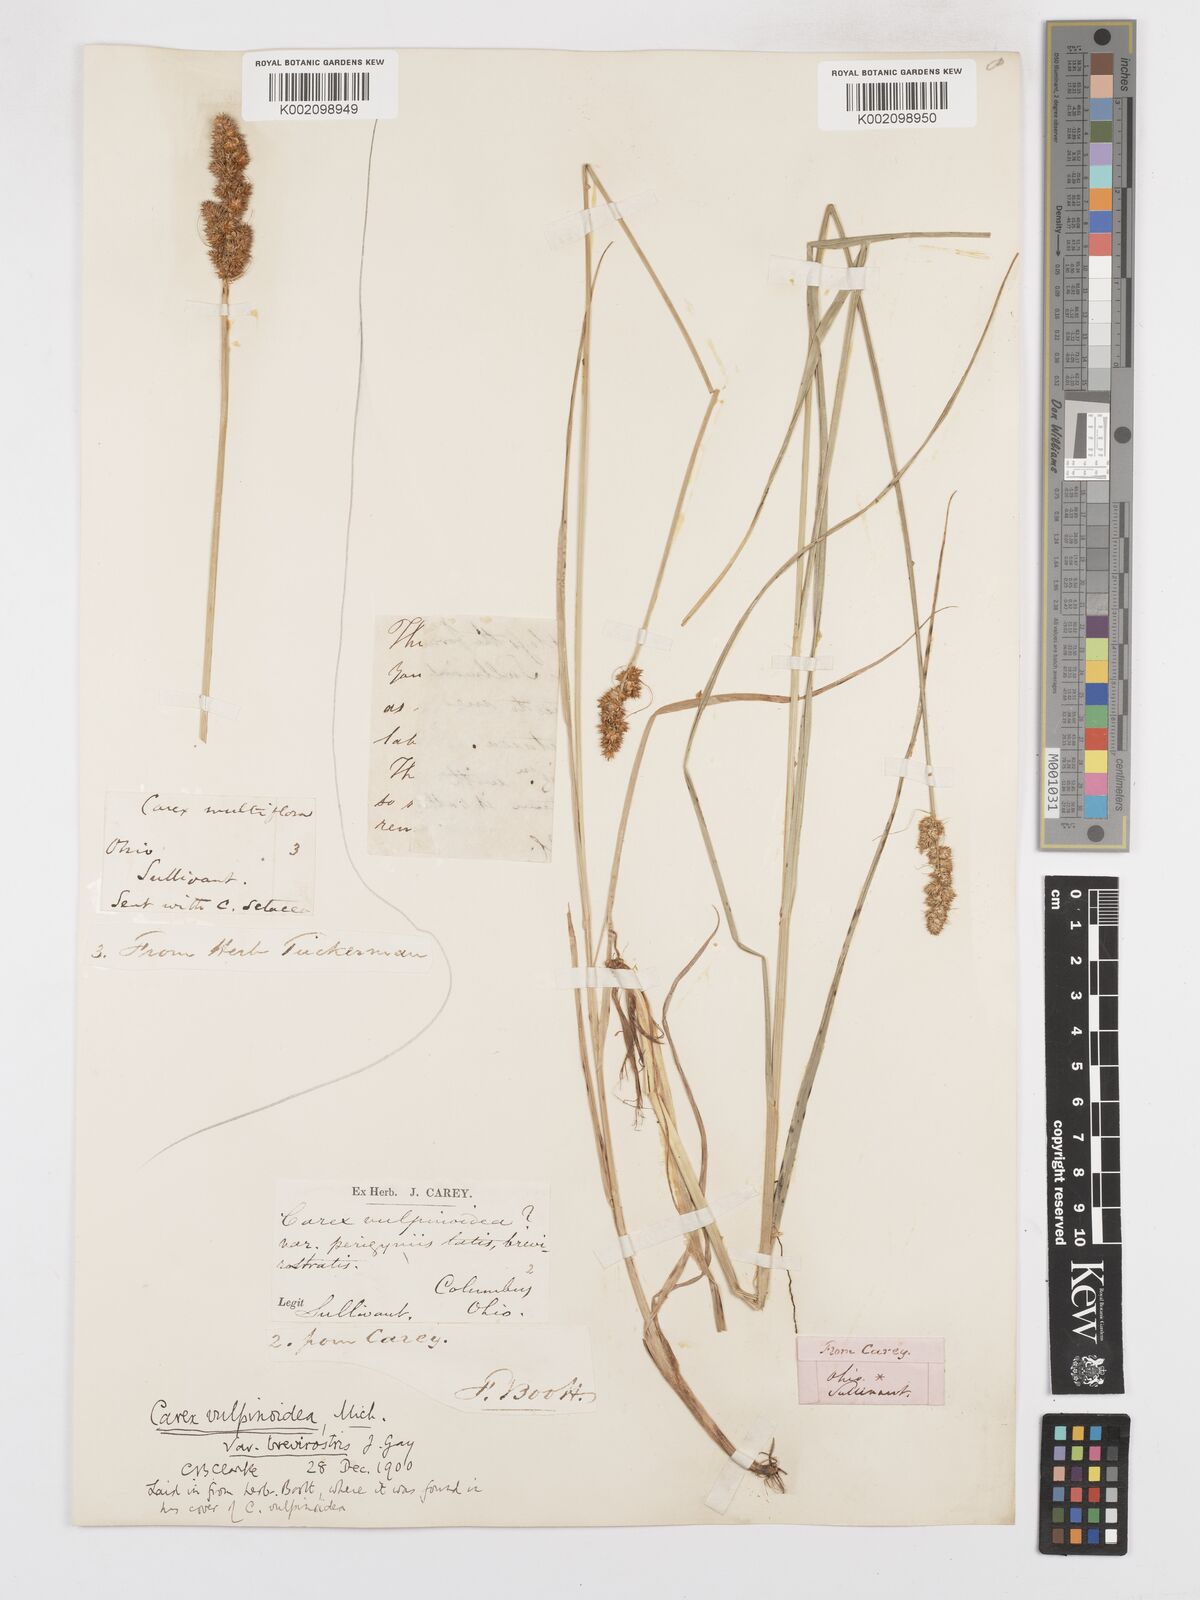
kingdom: Plantae
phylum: Tracheophyta
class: Liliopsida
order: Poales
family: Cyperaceae
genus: Carex
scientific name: Carex vulpinoidea
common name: American fox-sedge
